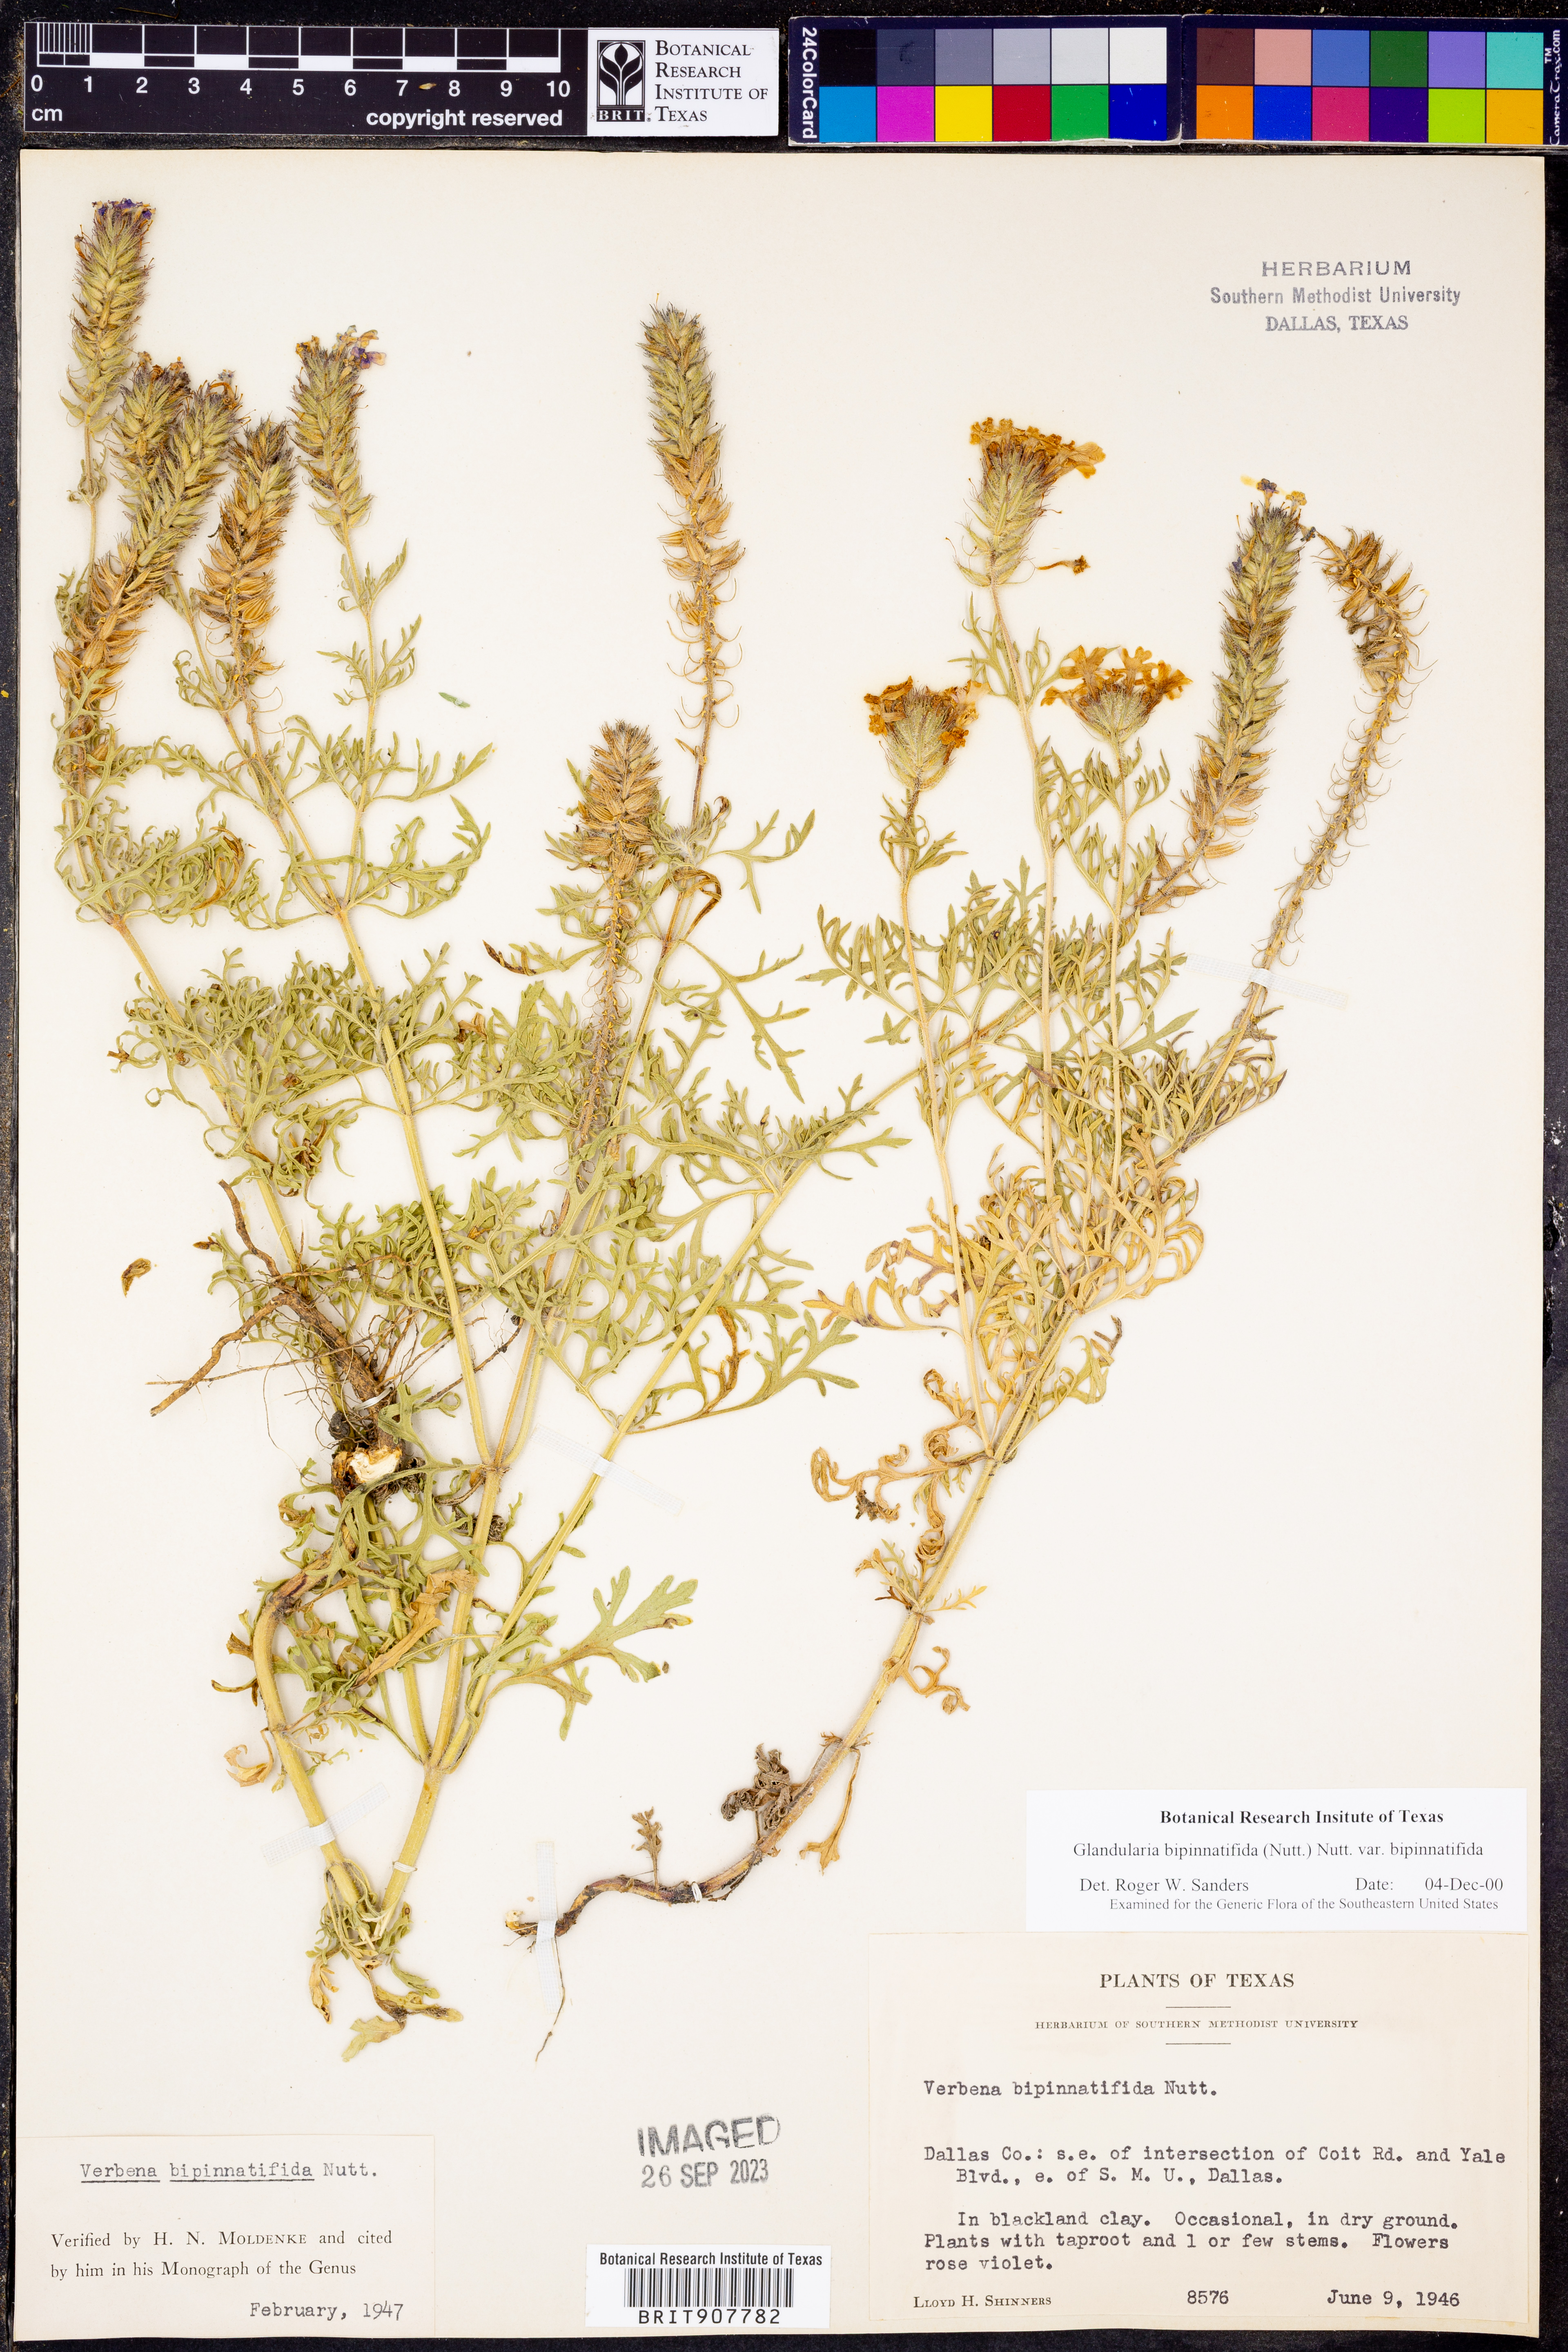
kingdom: Plantae
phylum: Tracheophyta
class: Magnoliopsida
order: Lamiales
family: Verbenaceae
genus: Verbena
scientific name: Verbena bipinnatifida
